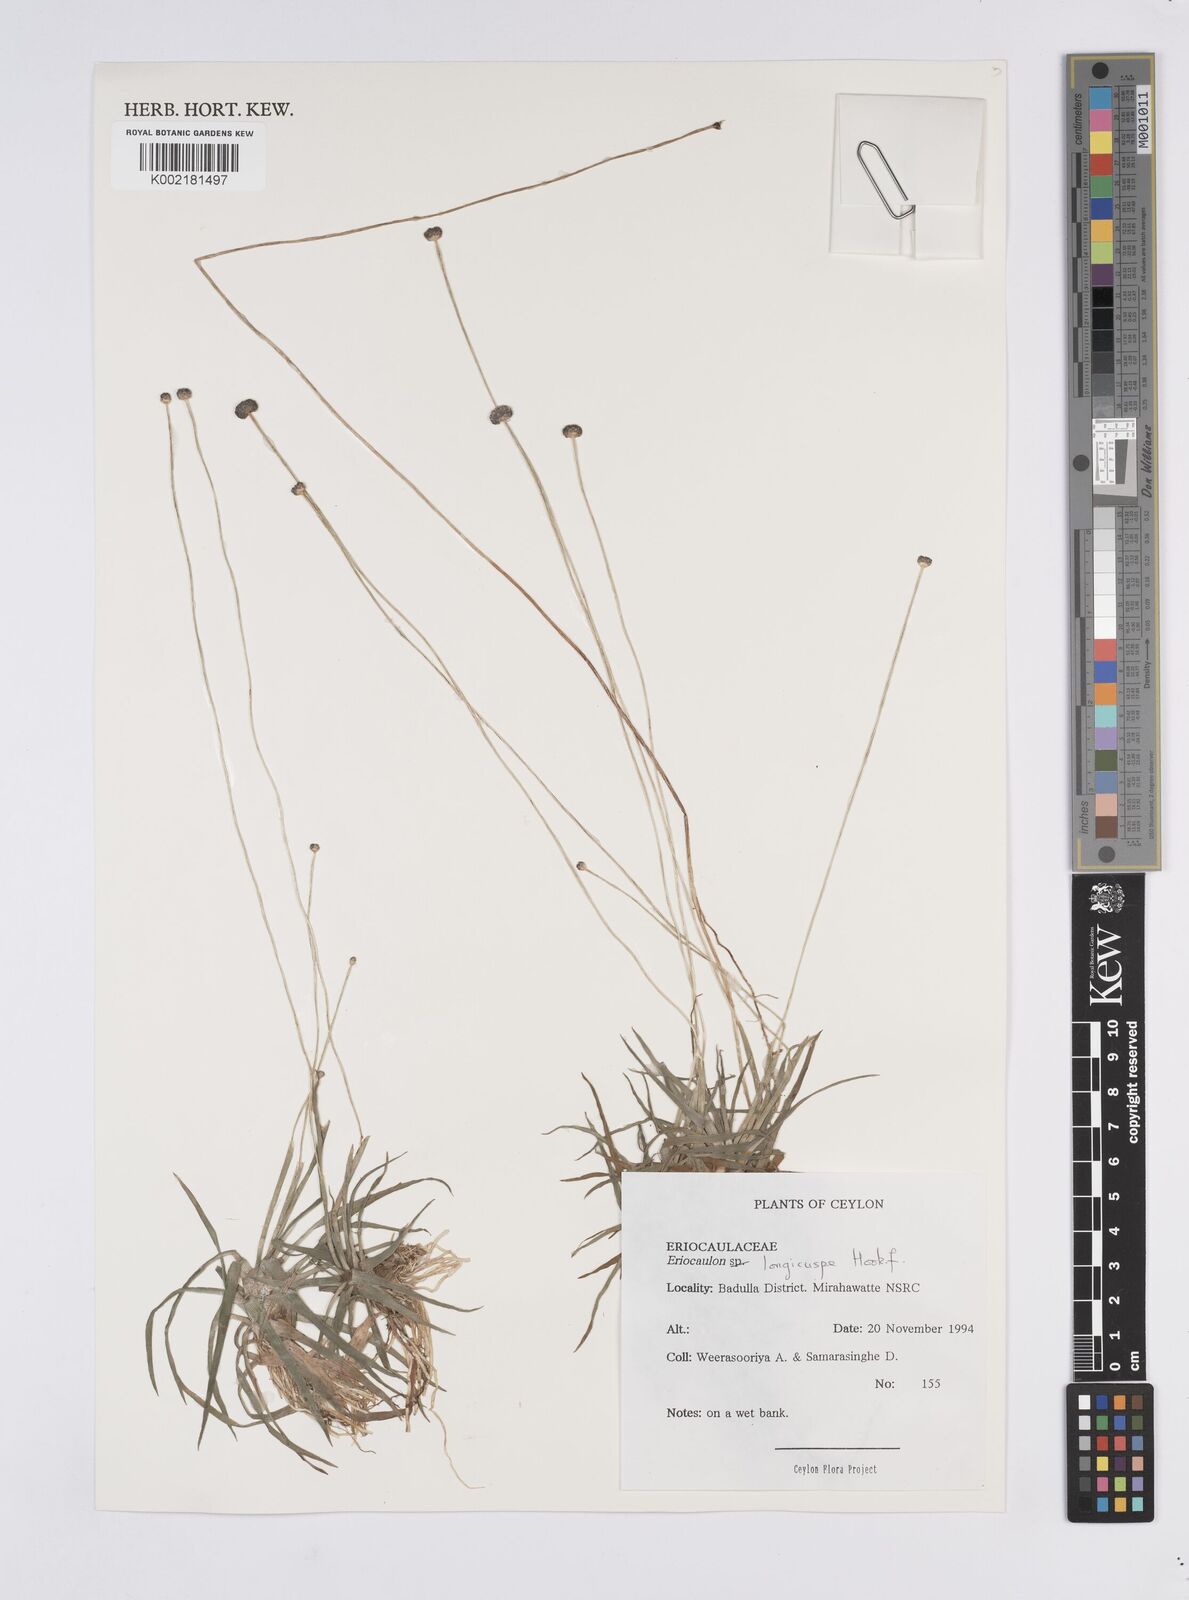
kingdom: Plantae
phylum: Tracheophyta
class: Liliopsida
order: Poales
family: Eriocaulaceae
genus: Eriocaulon
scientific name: Eriocaulon longicuspe
